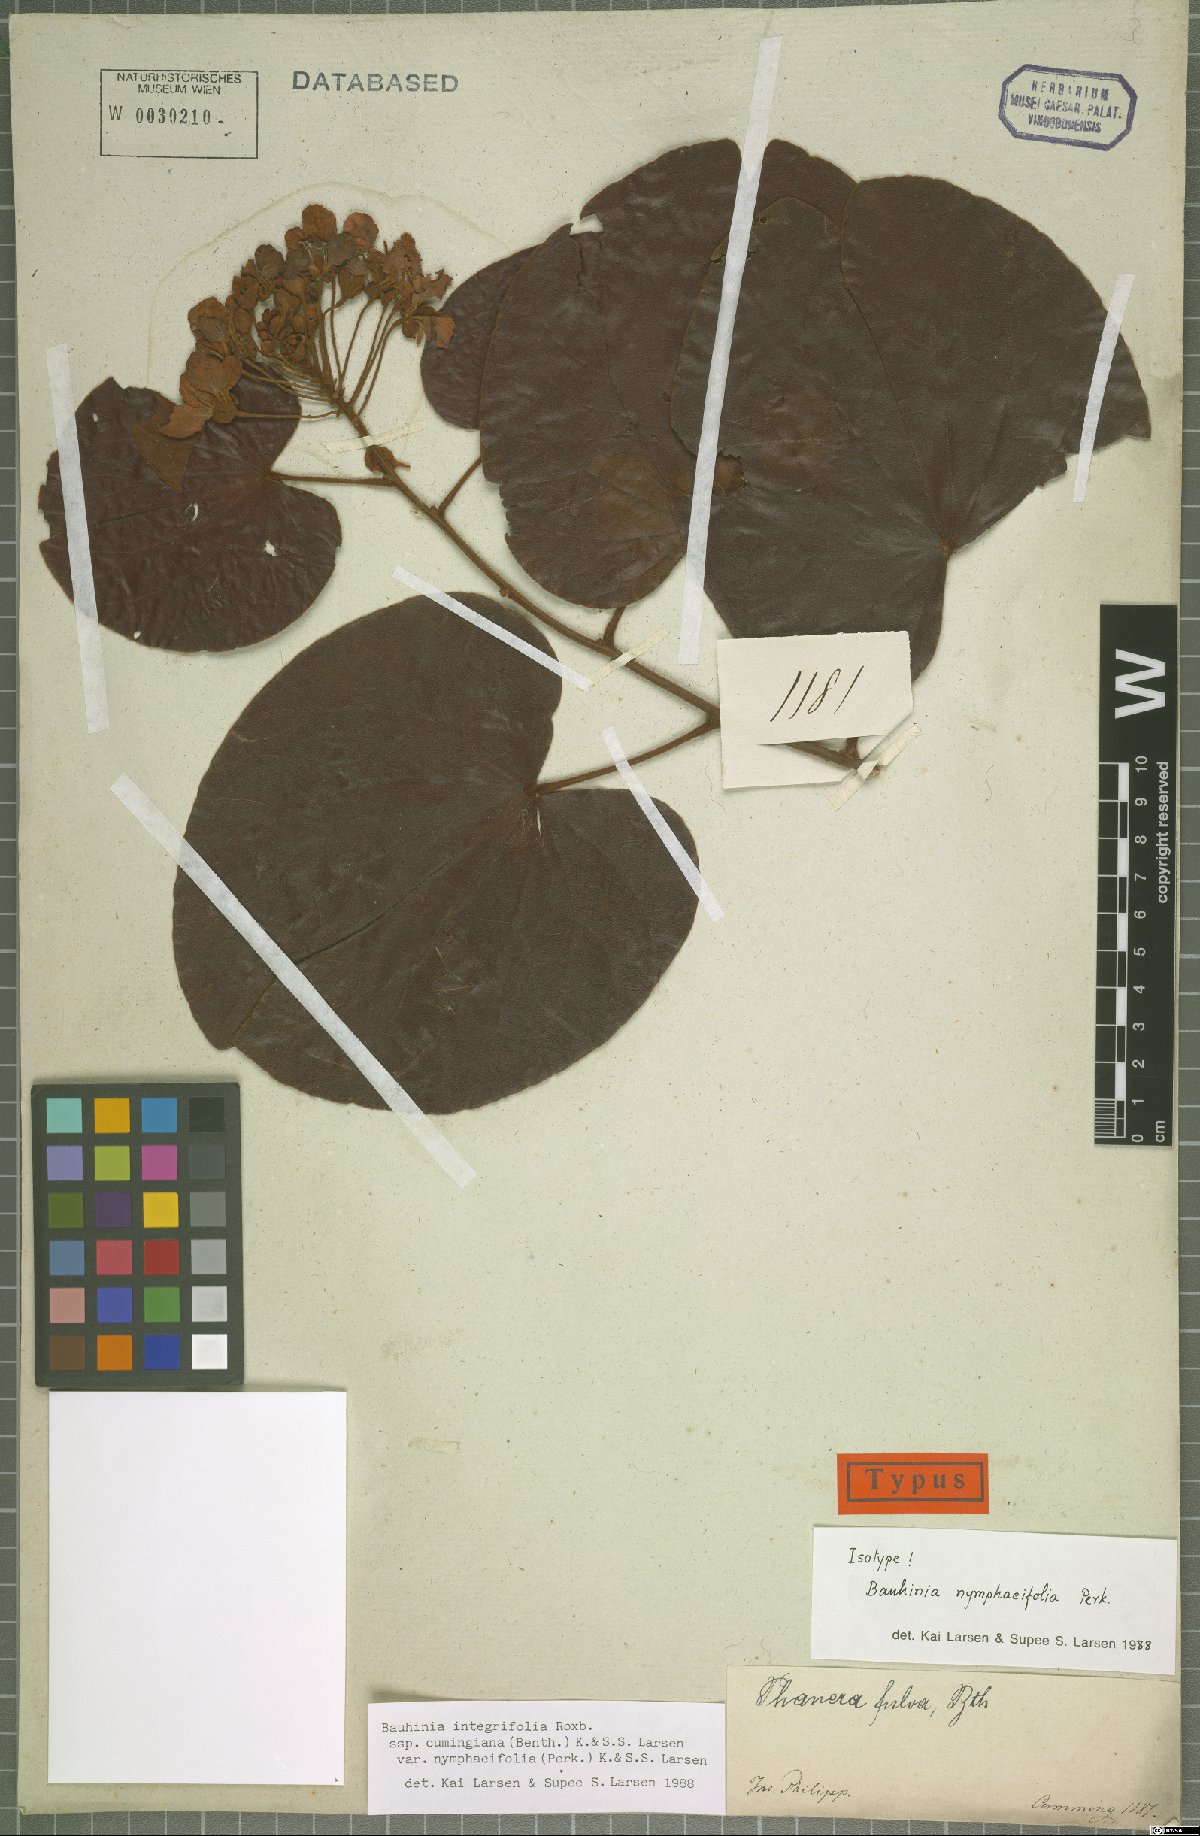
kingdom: Plantae
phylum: Tracheophyta
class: Magnoliopsida
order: Fabales
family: Fabaceae
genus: Phanera
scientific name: Phanera integrifolia
